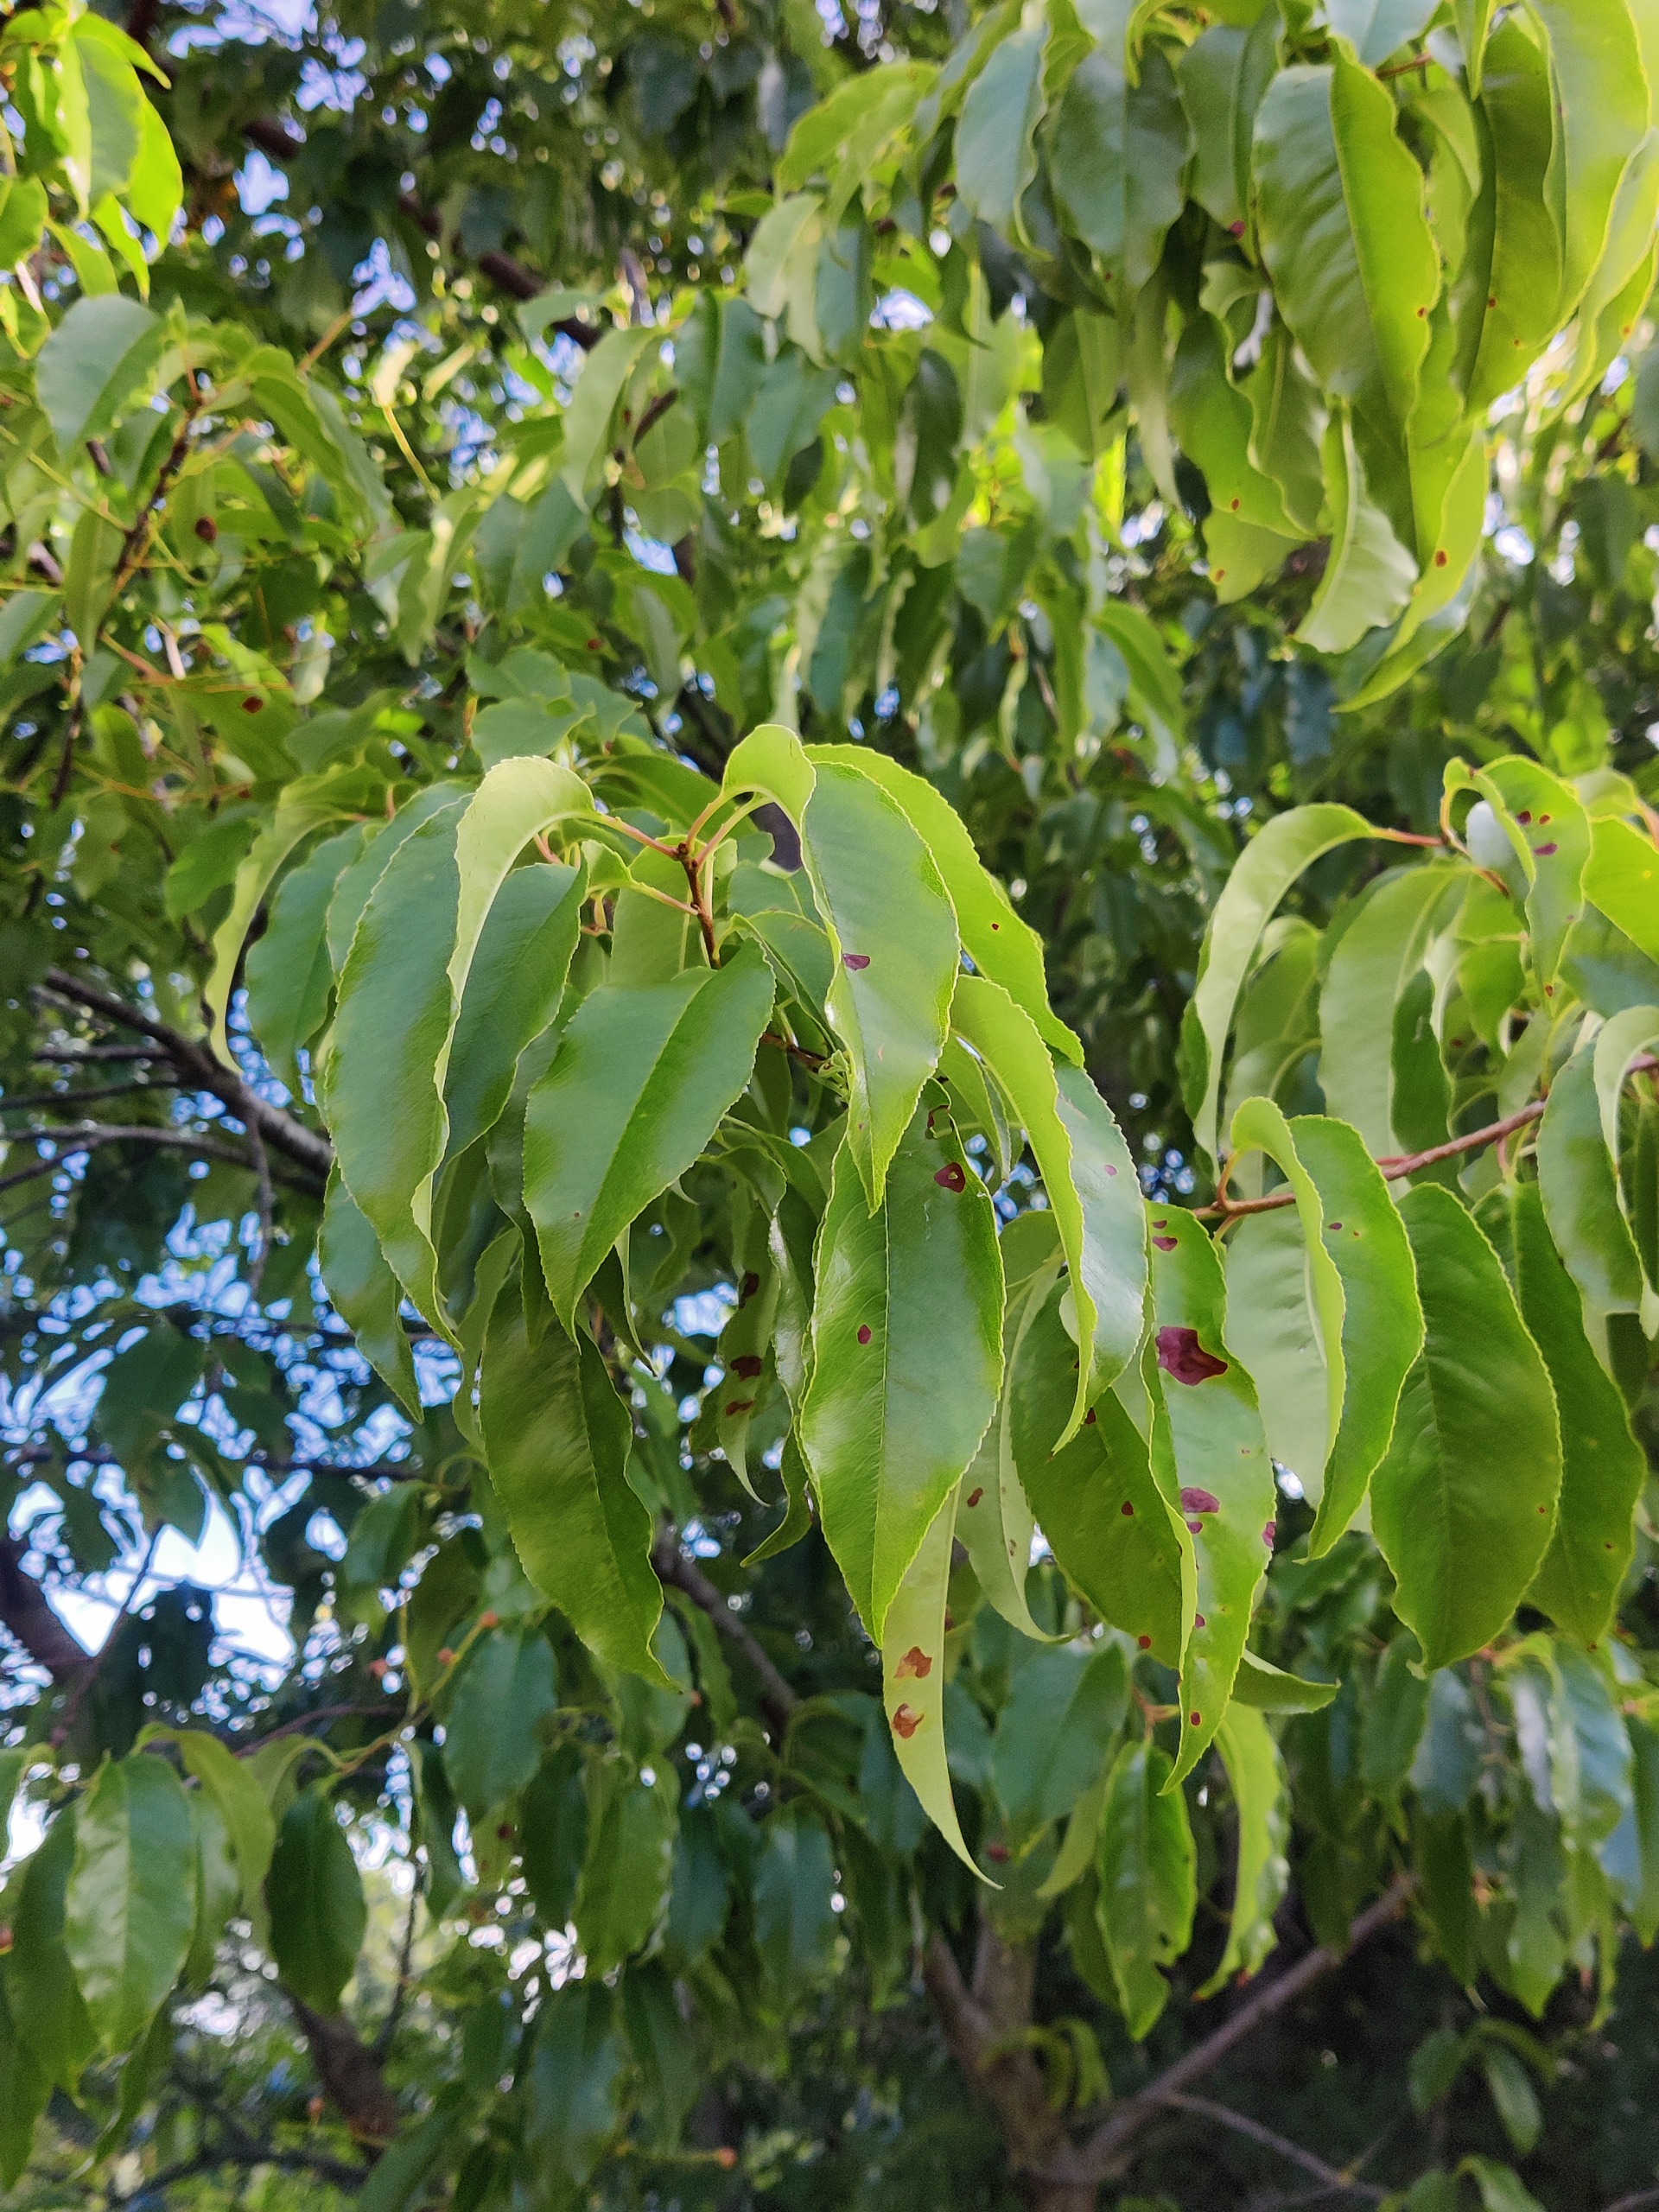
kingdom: Plantae
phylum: Tracheophyta
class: Magnoliopsida
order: Rosales
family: Rosaceae
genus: Prunus
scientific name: Prunus serotina
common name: Glansbladet hæg
